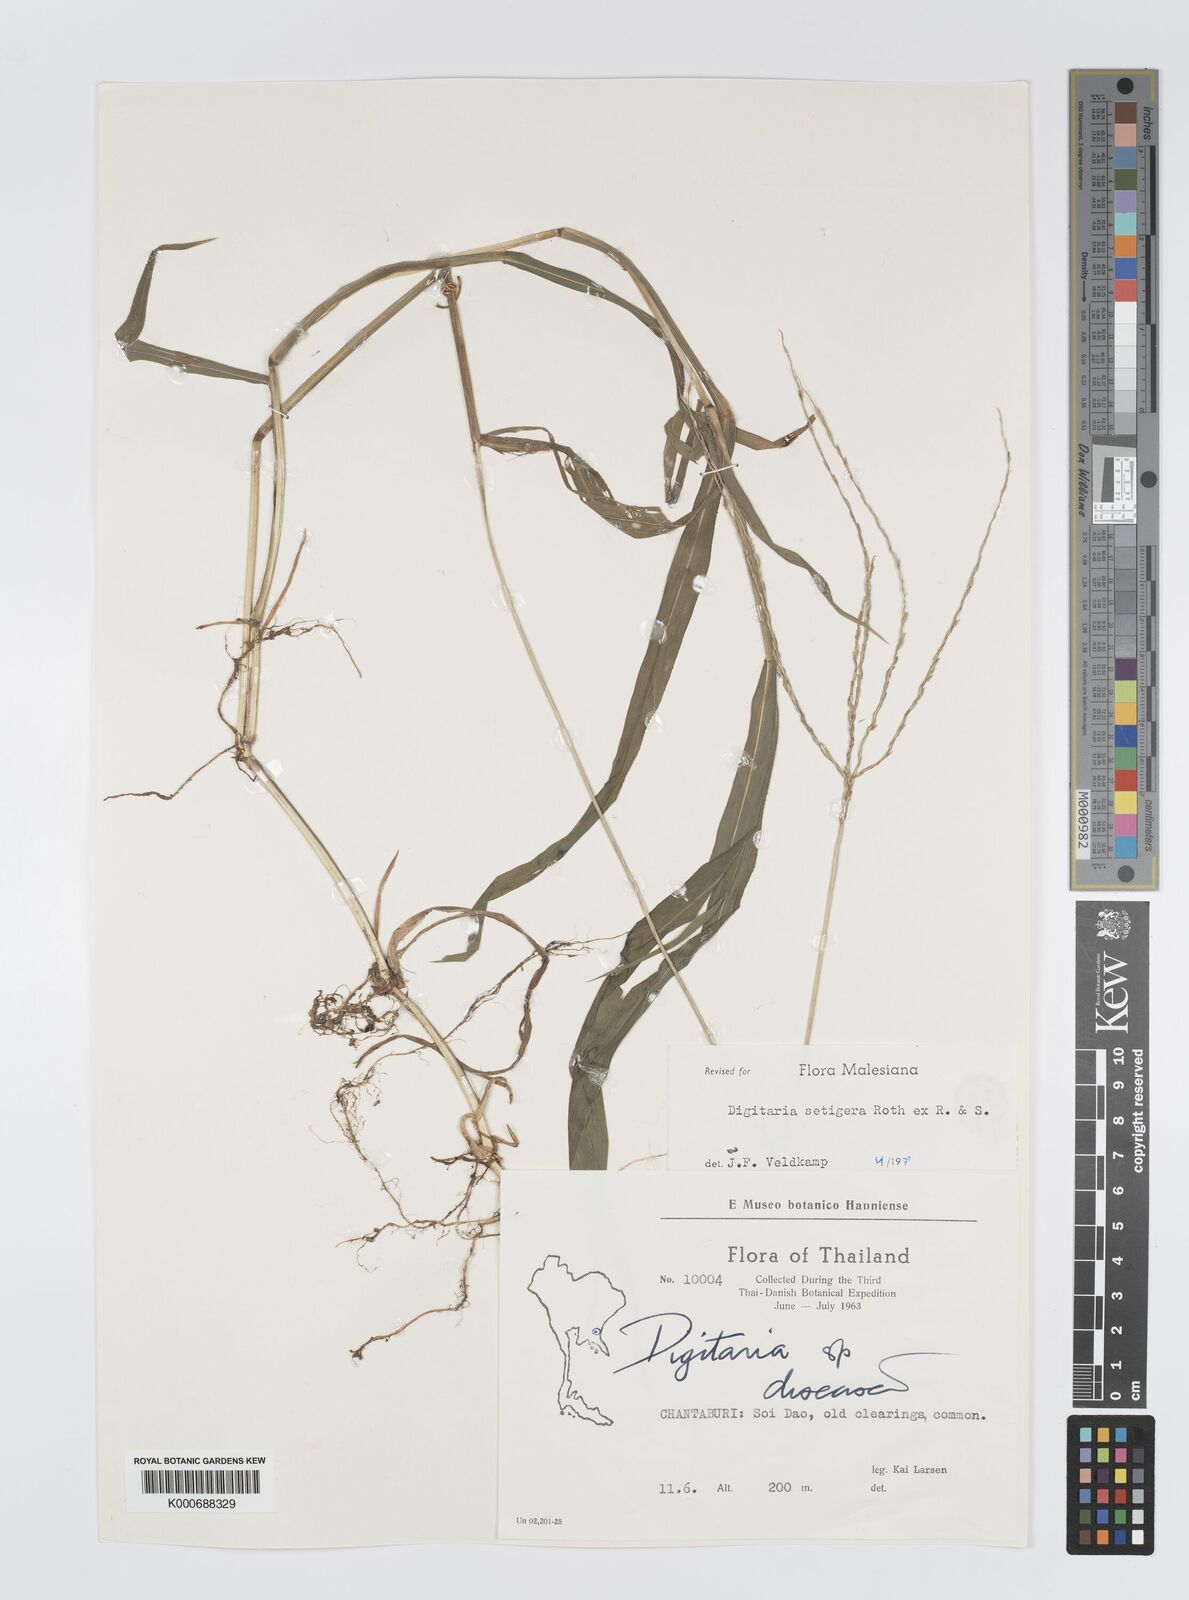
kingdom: Plantae
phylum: Tracheophyta
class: Liliopsida
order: Poales
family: Poaceae
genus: Digitaria
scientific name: Digitaria
